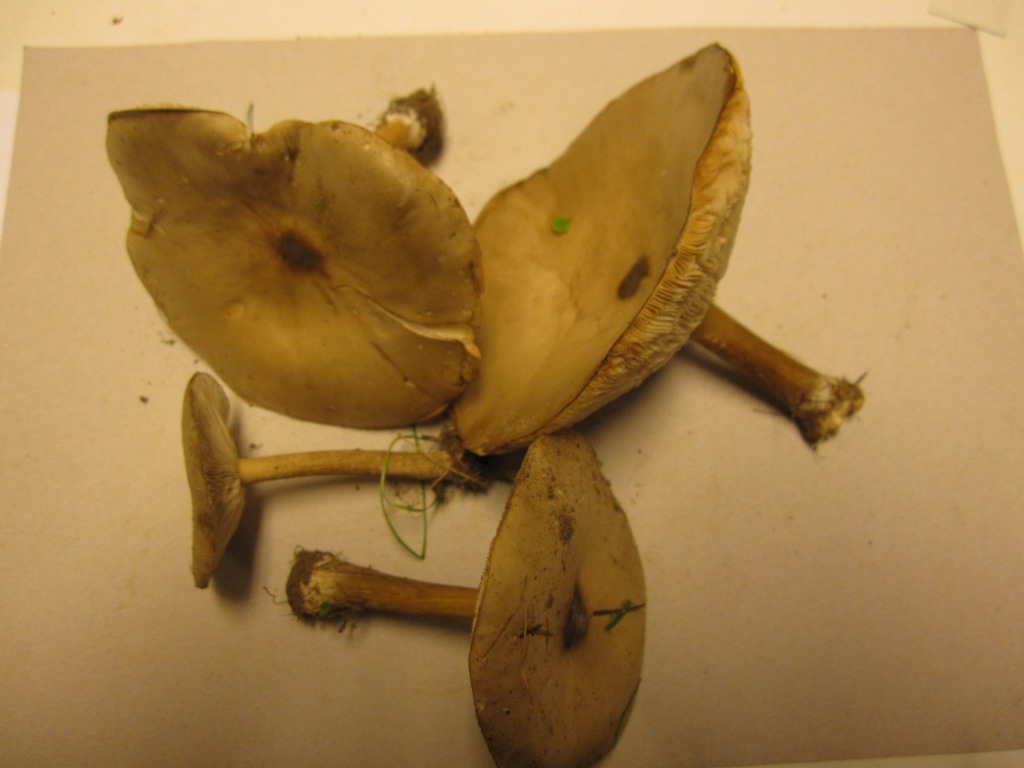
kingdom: Fungi
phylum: Basidiomycota
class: Agaricomycetes
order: Agaricales
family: Tricholomataceae
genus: Melanoleuca
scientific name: Melanoleuca exscissa
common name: gusten munkehat
